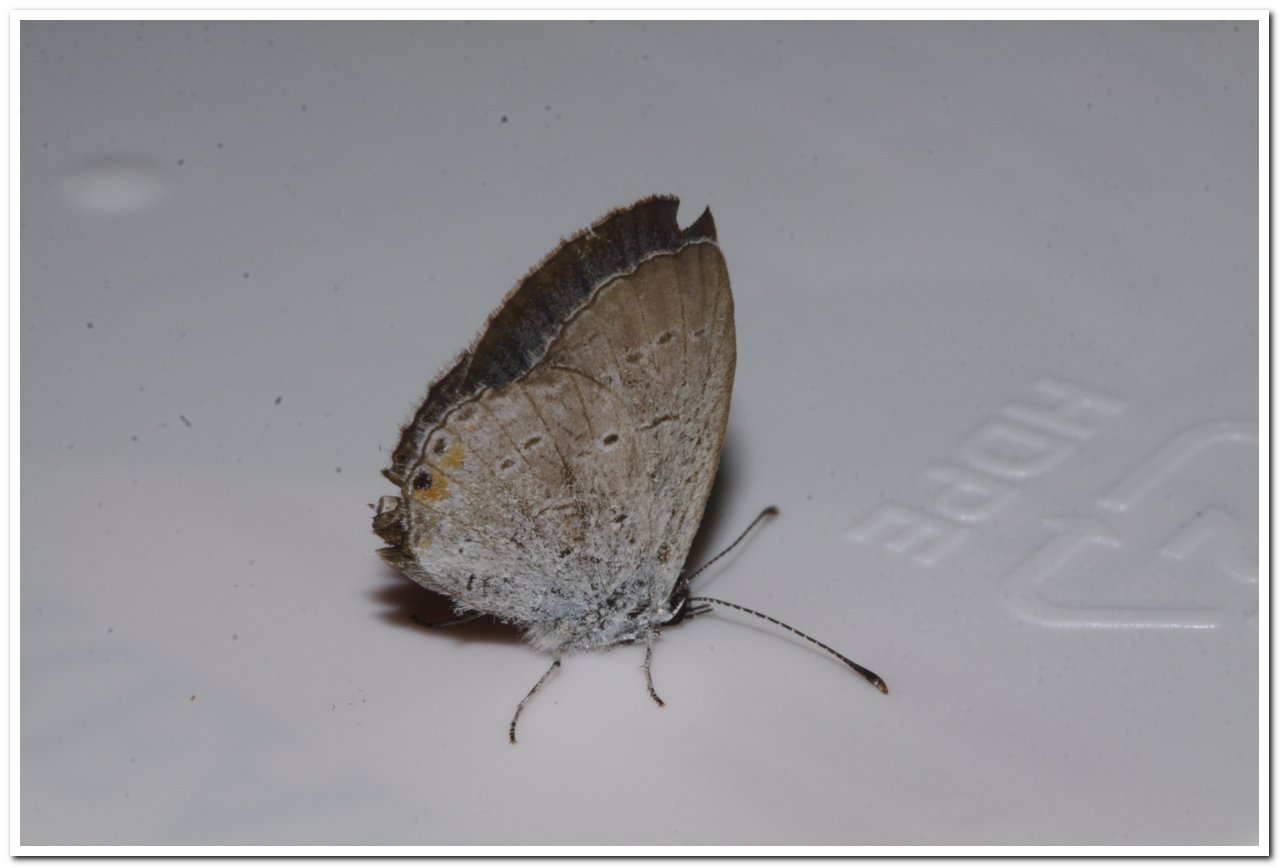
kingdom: Animalia
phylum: Arthropoda
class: Insecta
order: Lepidoptera
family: Lycaenidae
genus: Elkalyce
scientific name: Elkalyce comyntas
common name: Eastern Tailed-Blue
